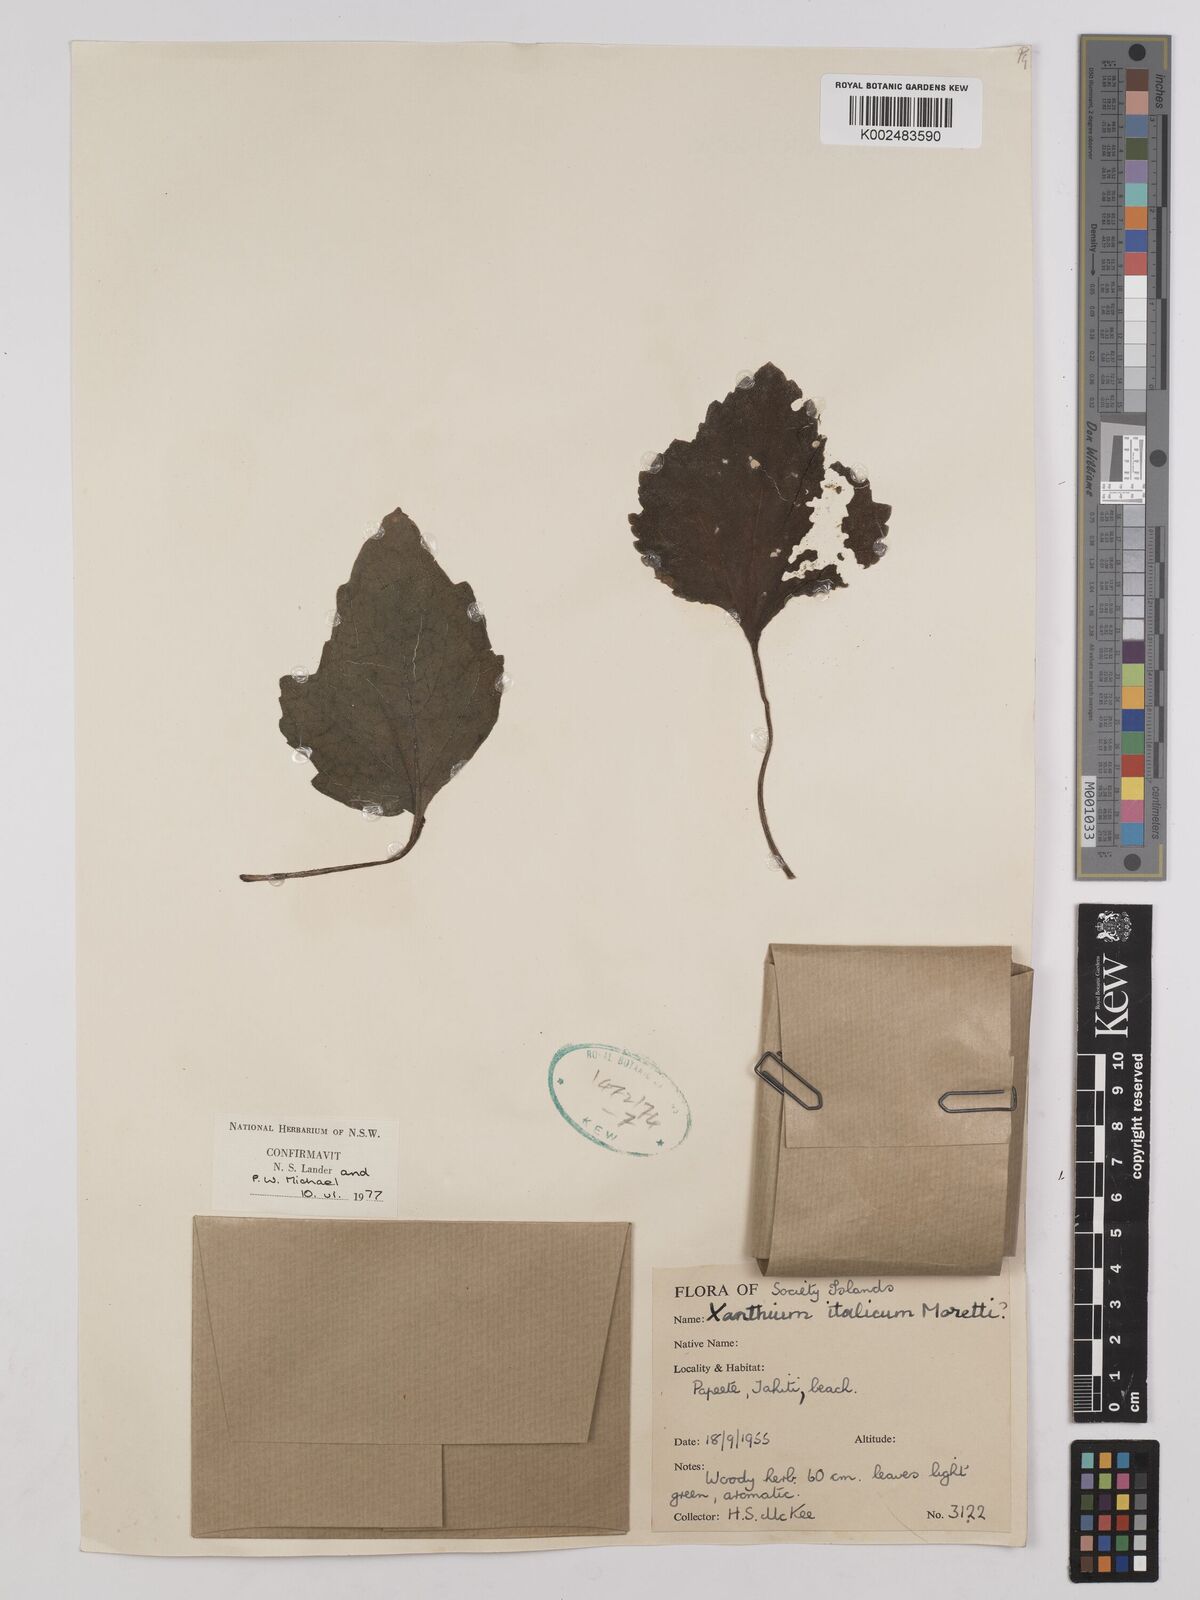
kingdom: Plantae
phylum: Tracheophyta
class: Magnoliopsida
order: Asterales
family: Asteraceae
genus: Xanthium
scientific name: Xanthium orientale
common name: Californian burr
